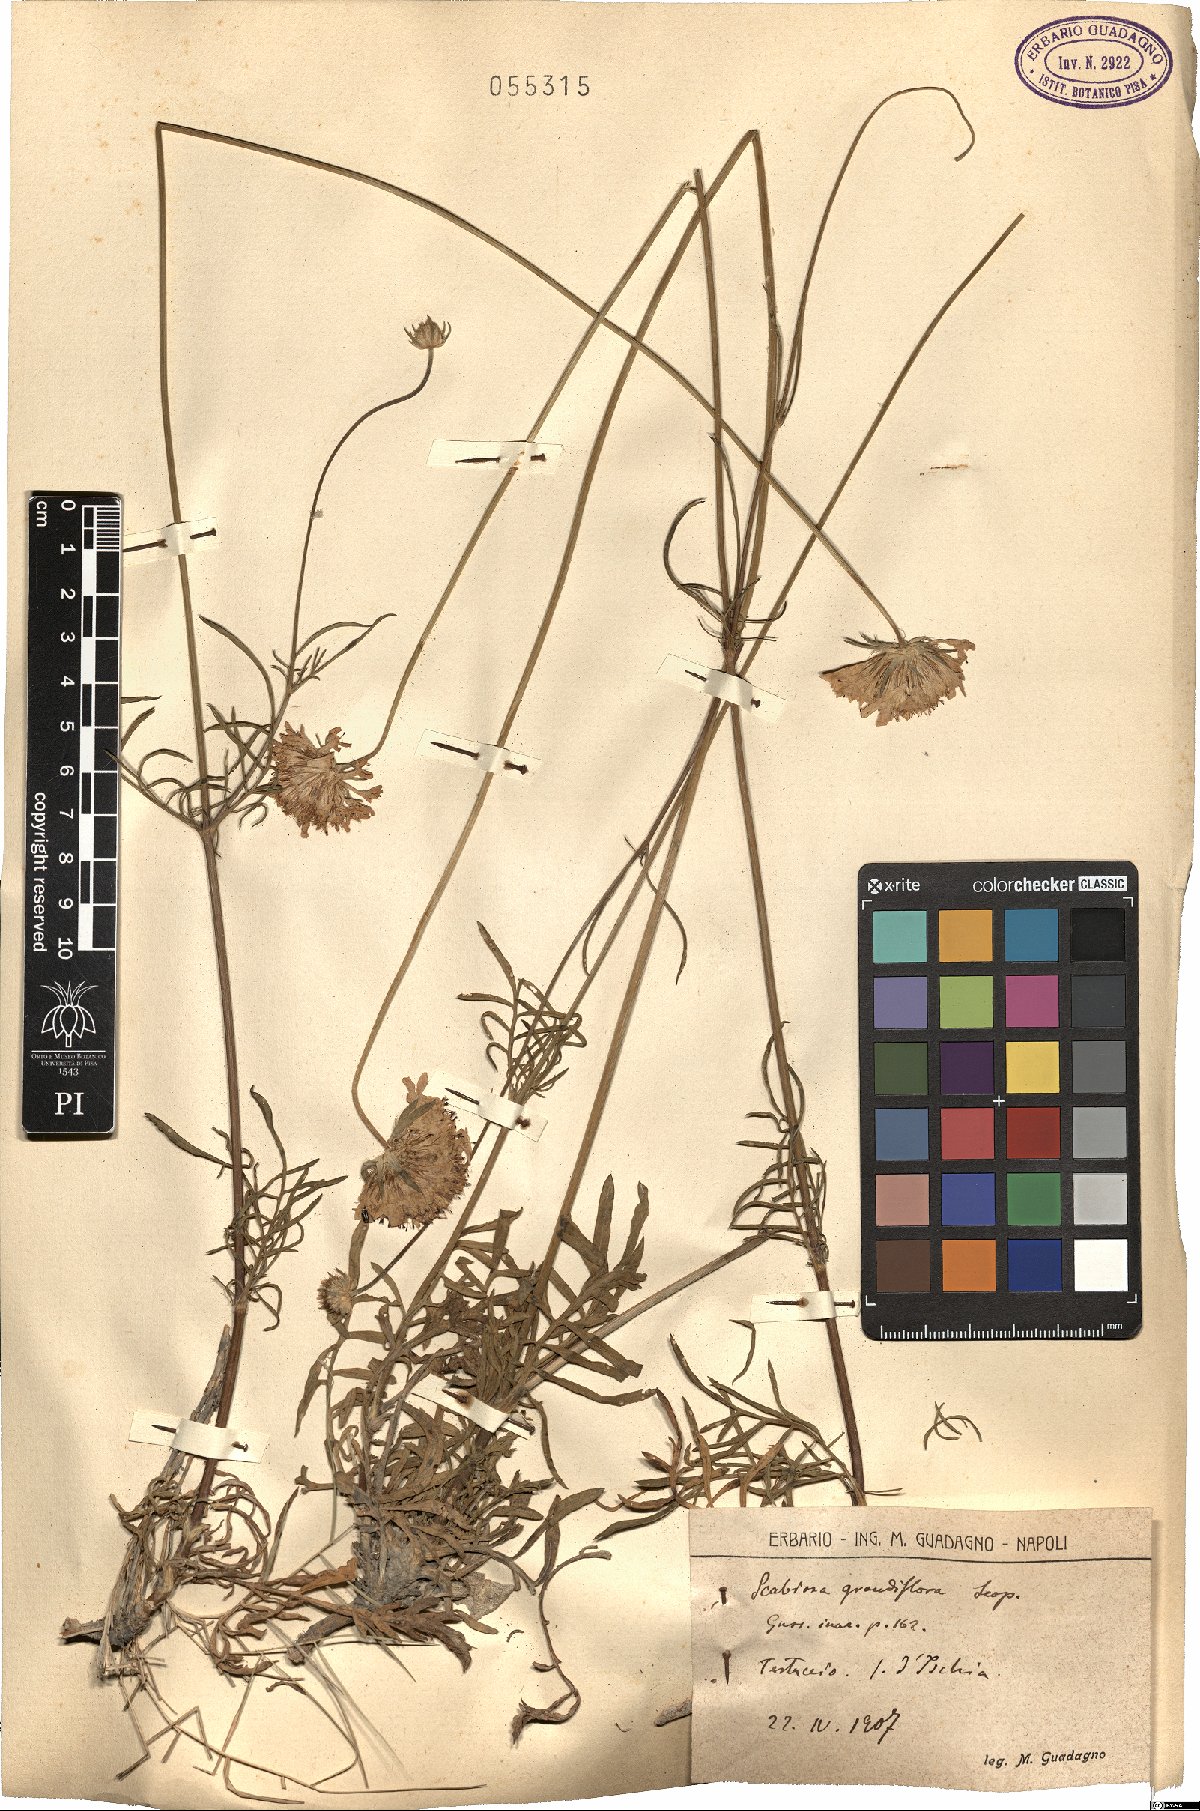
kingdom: Plantae
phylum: Tracheophyta
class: Magnoliopsida
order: Dipsacales
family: Caprifoliaceae
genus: Sixalix
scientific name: Sixalix atropurpurea
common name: Sweet scabious
